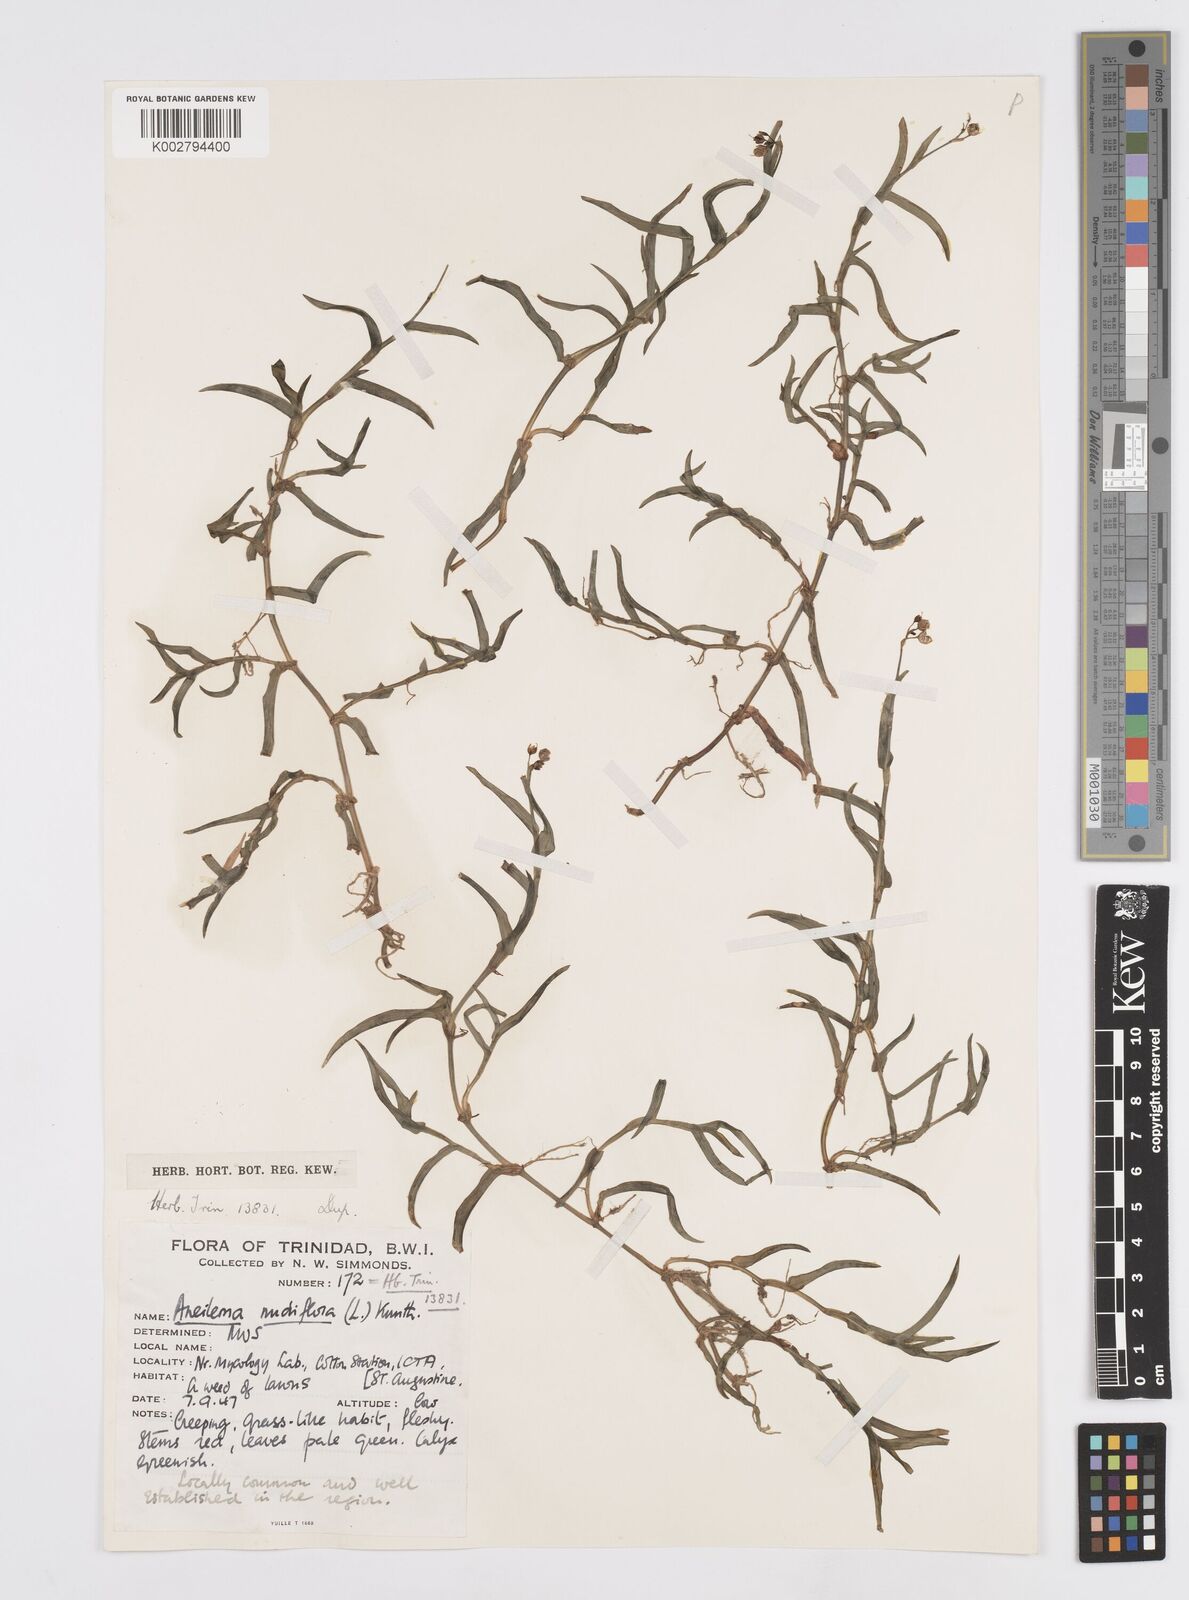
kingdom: Plantae
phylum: Tracheophyta
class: Liliopsida
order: Commelinales
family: Commelinaceae
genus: Murdannia
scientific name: Murdannia nudiflora
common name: Nakedstem dewflower
